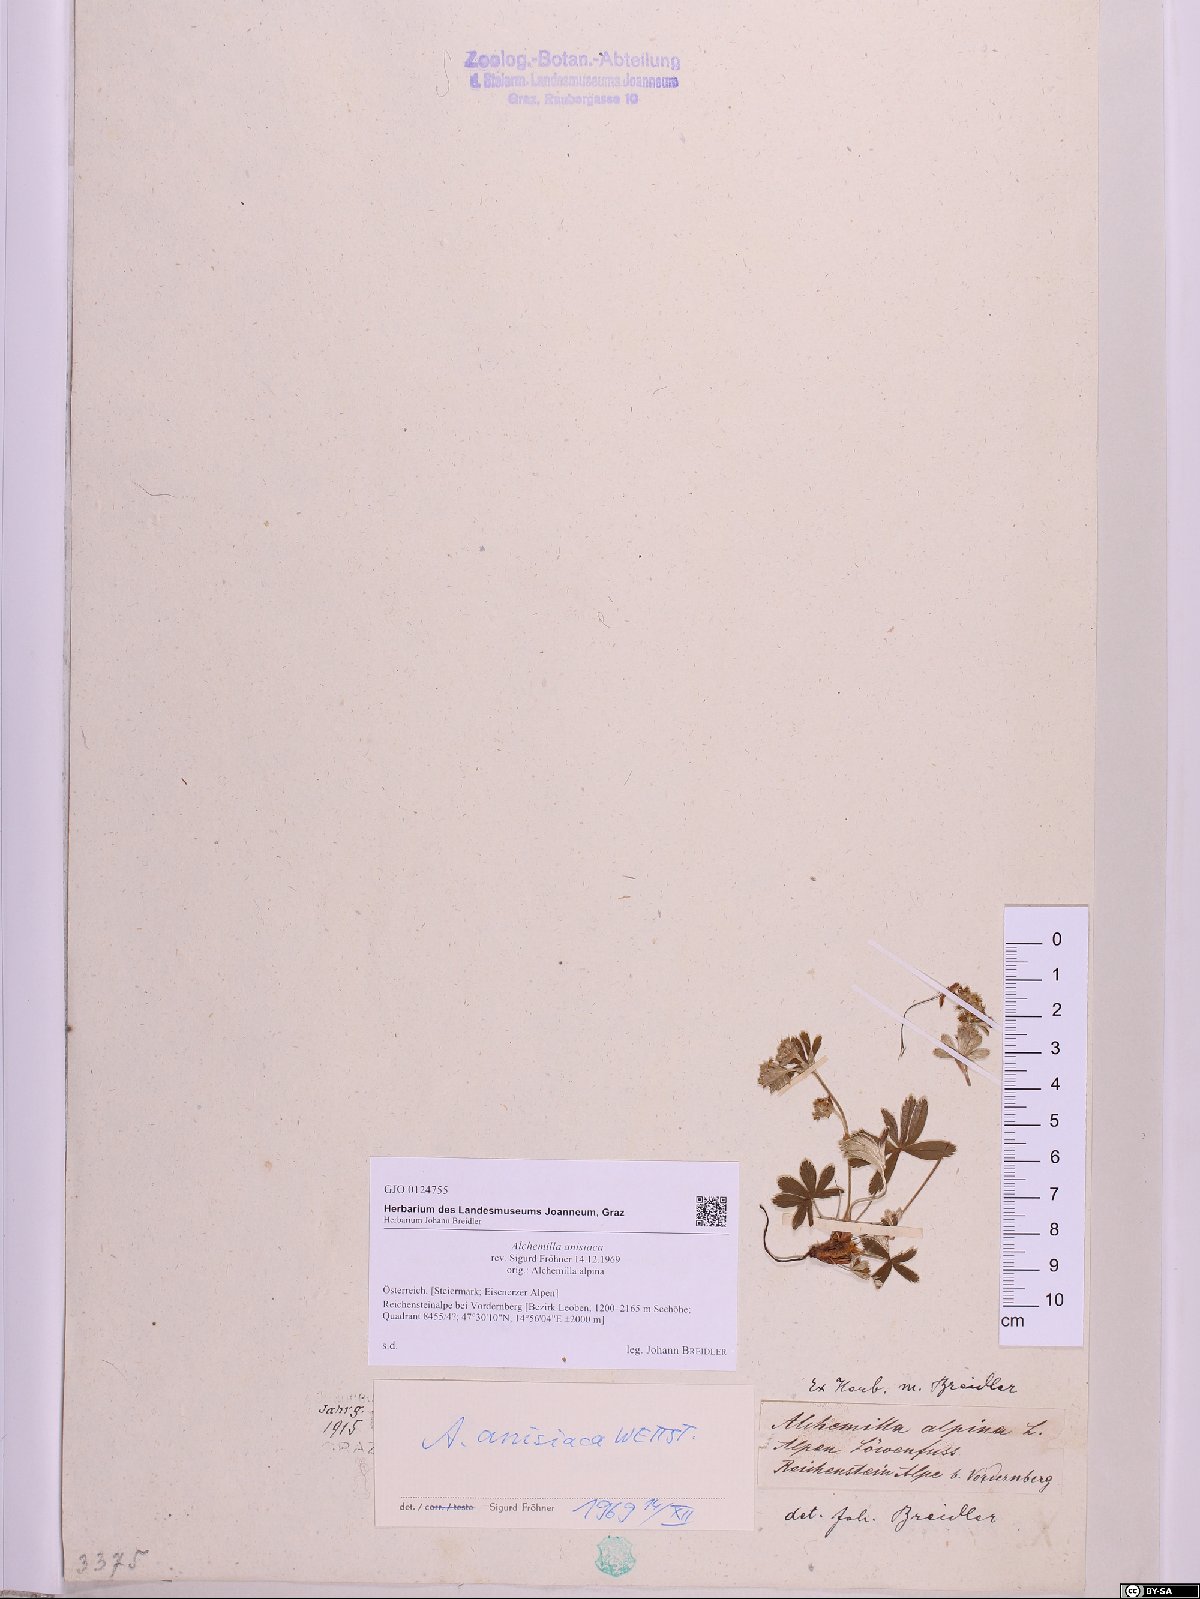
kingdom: Plantae
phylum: Tracheophyta
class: Magnoliopsida
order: Rosales
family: Rosaceae
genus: Alchemilla
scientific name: Alchemilla anisiaca
